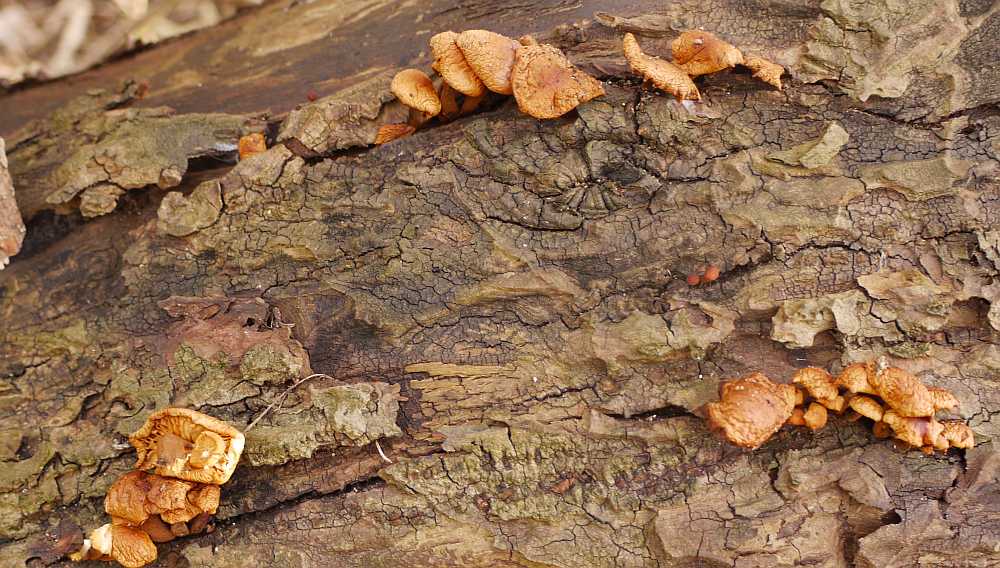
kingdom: Fungi
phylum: Basidiomycota
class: Agaricomycetes
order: Agaricales
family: Physalacriaceae
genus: Flammulina
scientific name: Flammulina velutipes
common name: gul fløjlsfod
